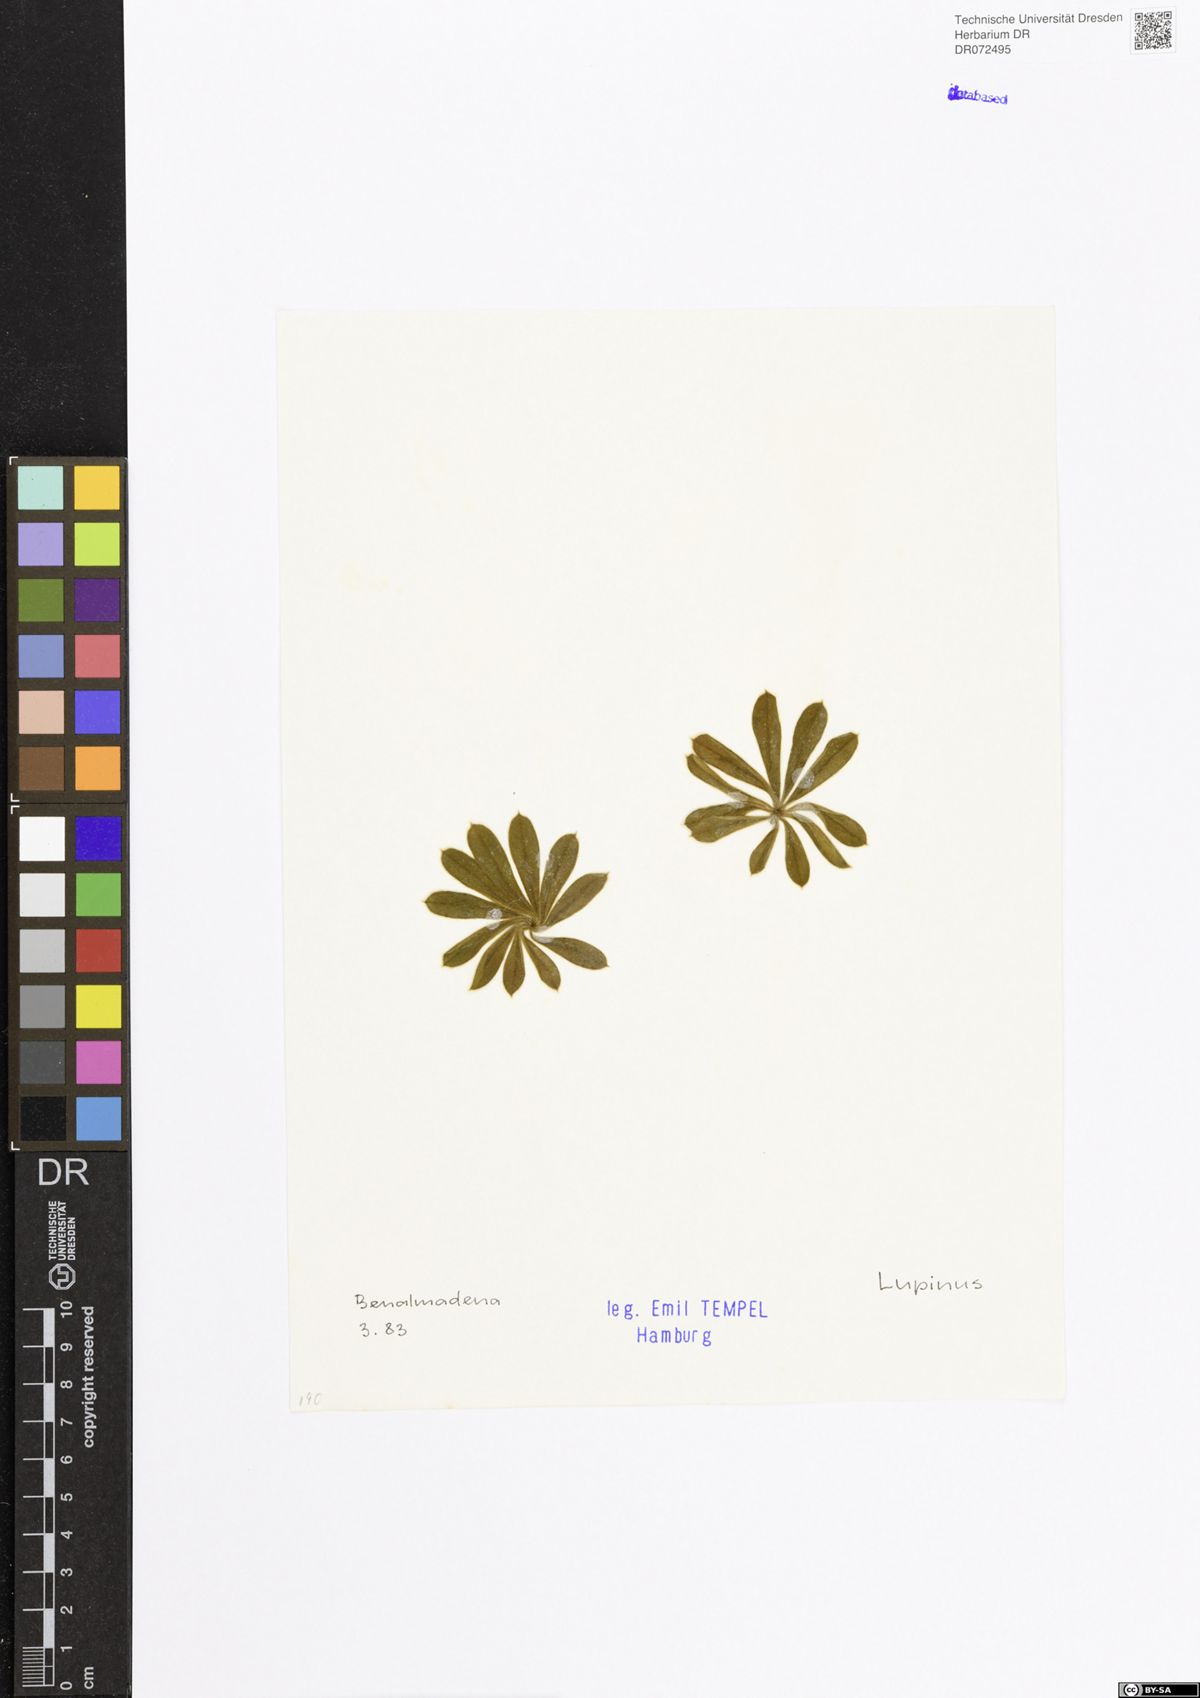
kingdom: Plantae
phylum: Tracheophyta
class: Magnoliopsida
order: Fabales
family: Fabaceae
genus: Lupinus
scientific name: Lupinus
